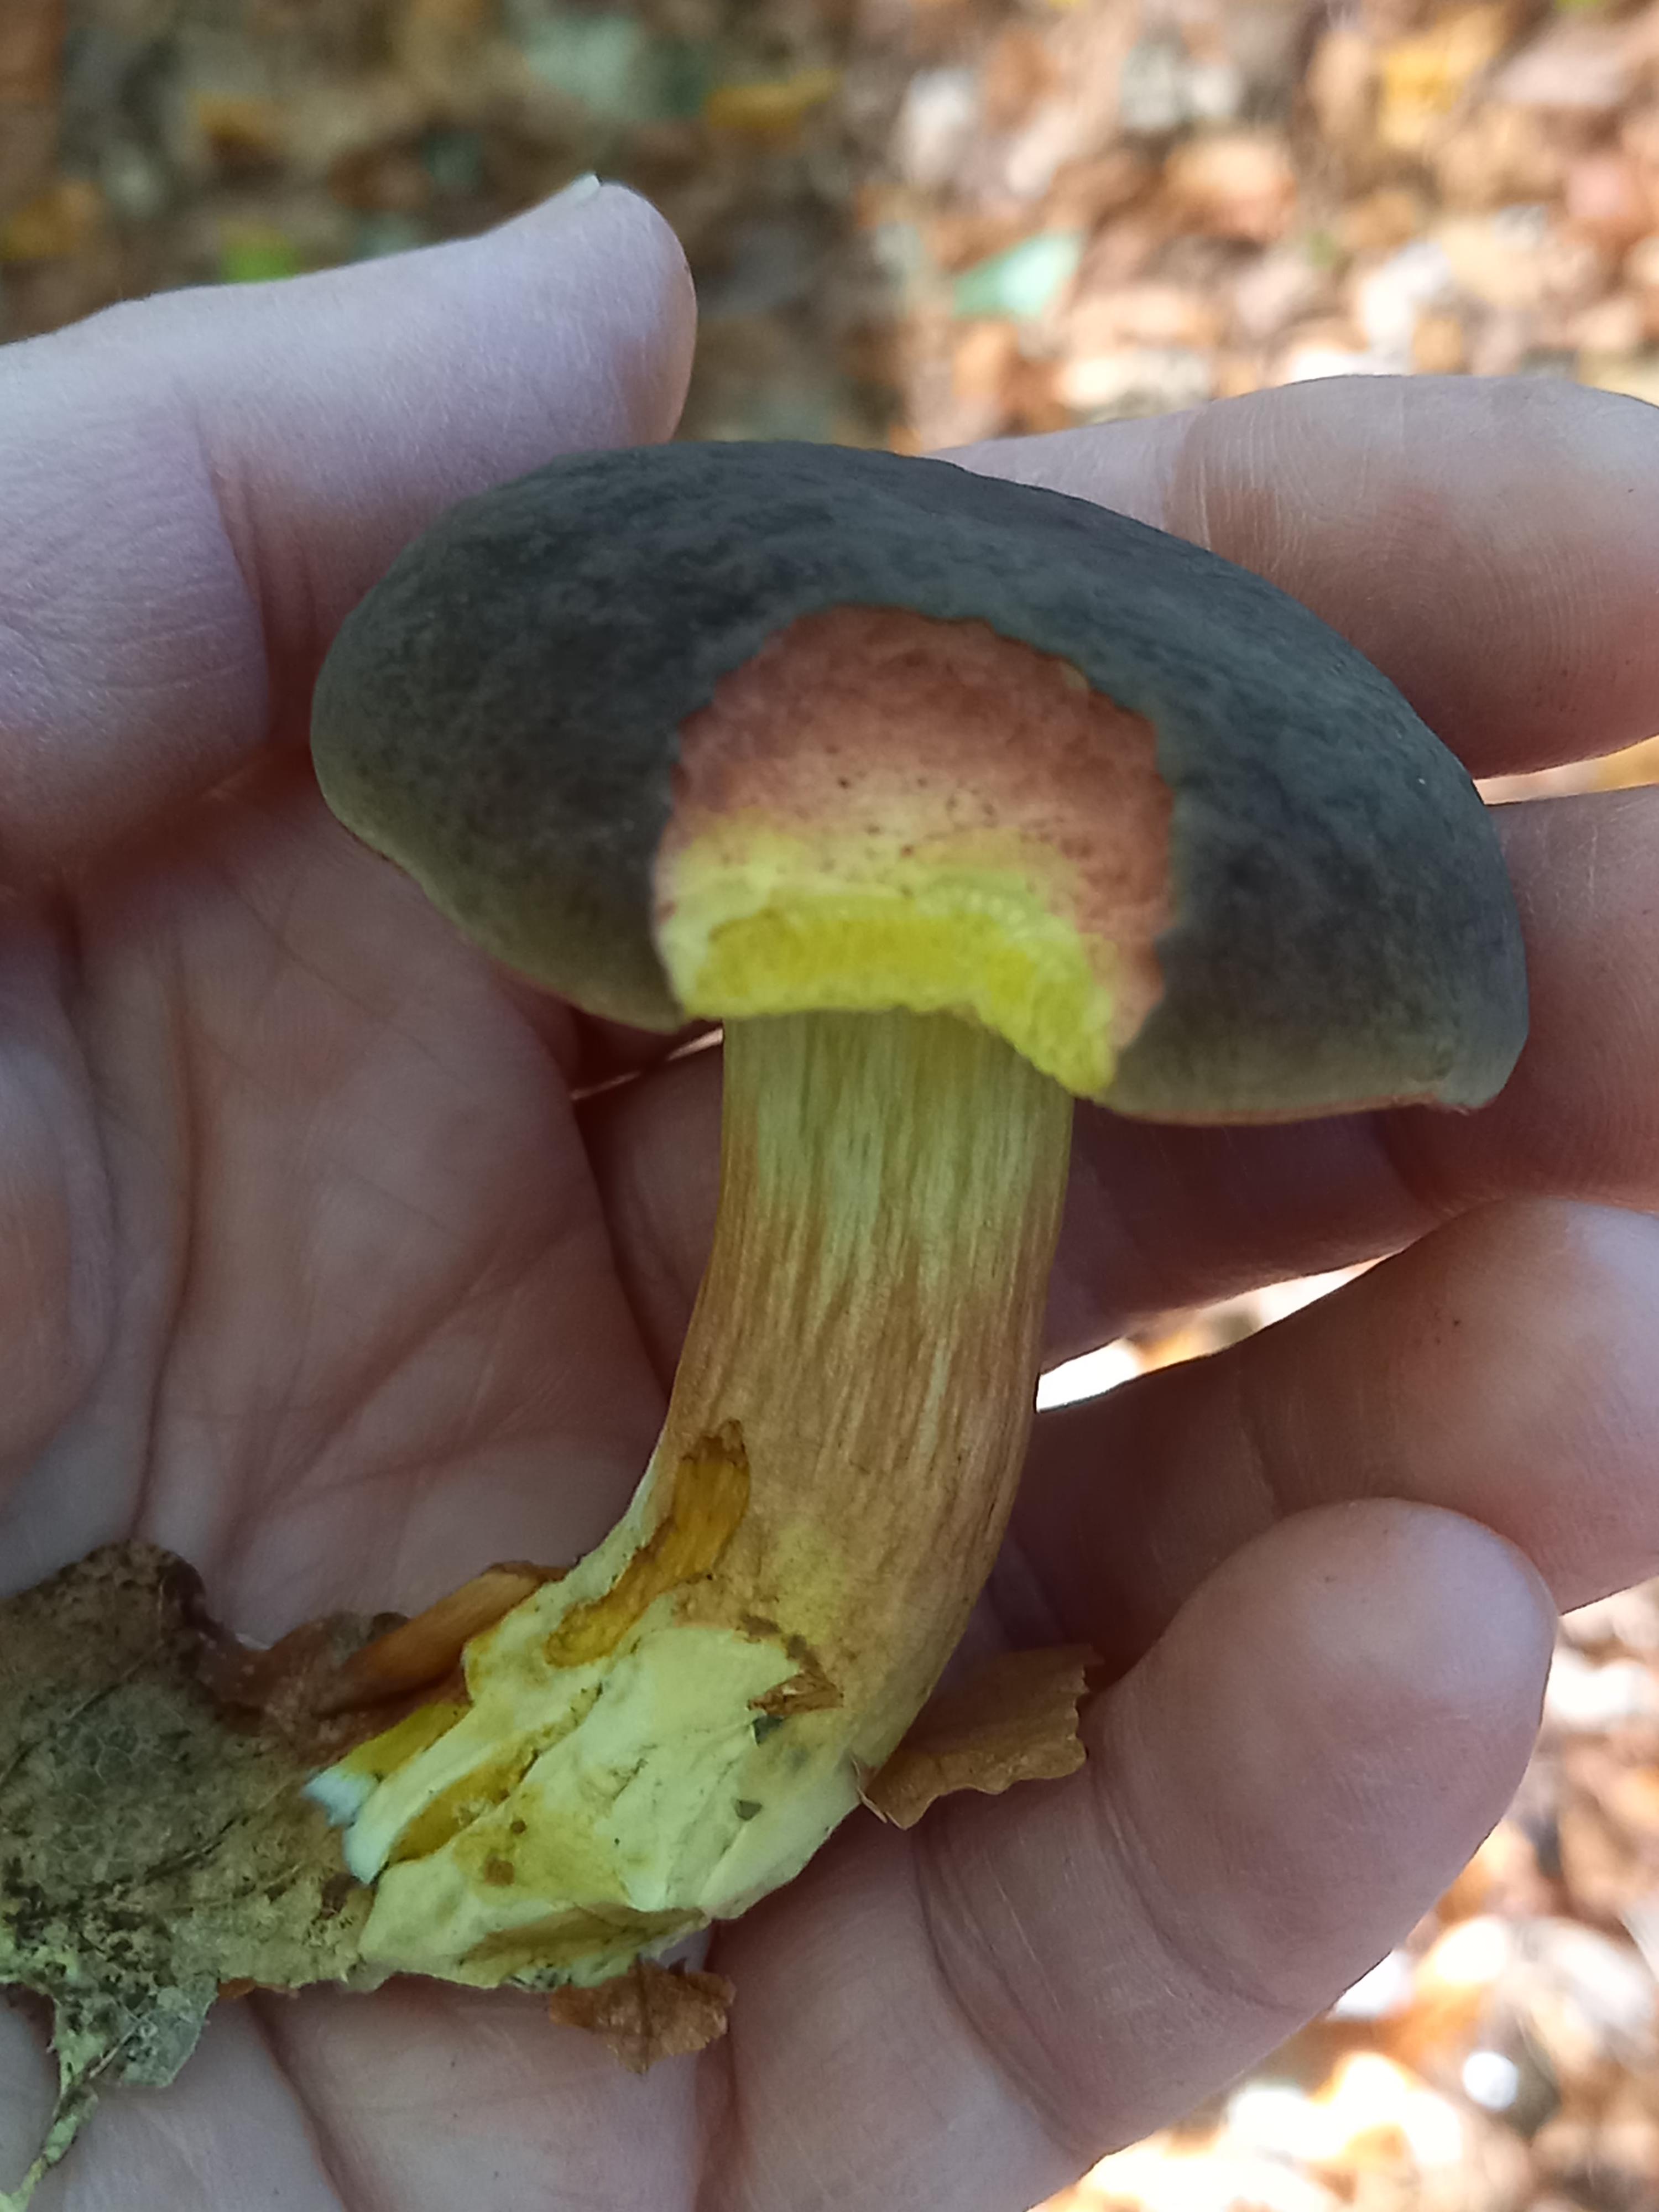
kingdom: Fungi
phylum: Basidiomycota
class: Agaricomycetes
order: Boletales
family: Boletaceae
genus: Xerocomellus
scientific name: Xerocomellus pruinatus
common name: dugget rørhat
